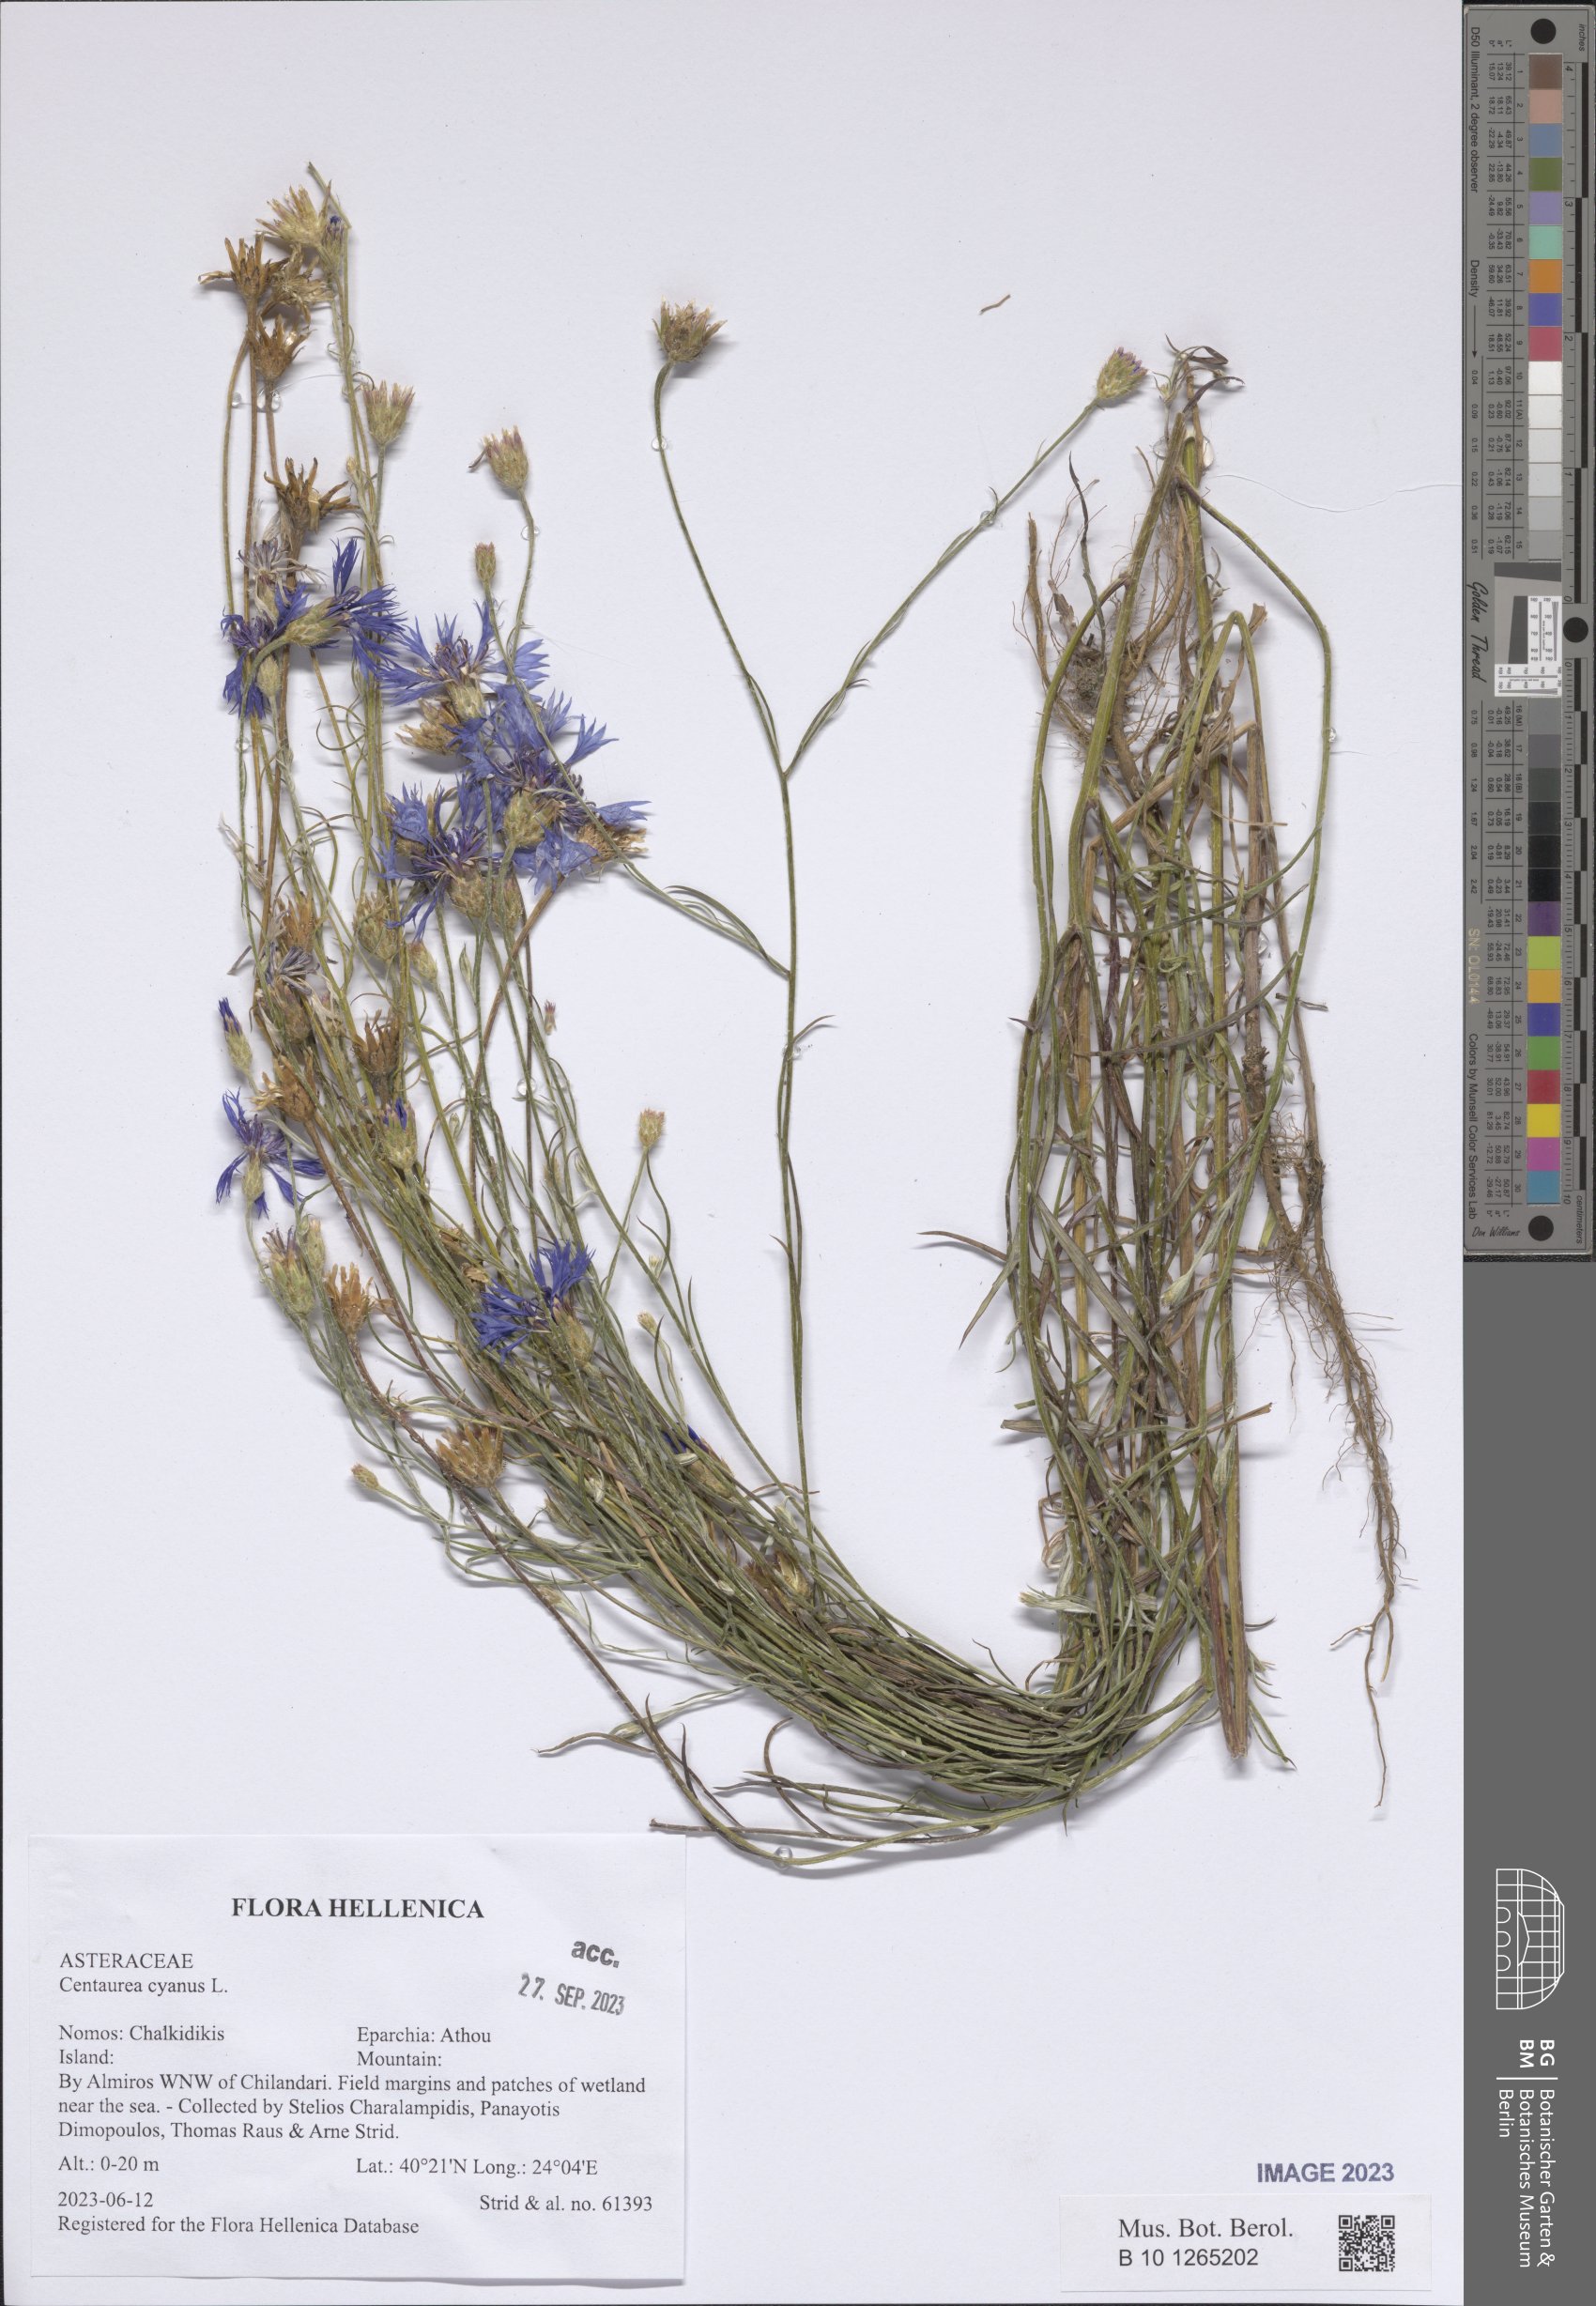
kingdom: Plantae
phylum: Tracheophyta
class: Magnoliopsida
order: Asterales
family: Asteraceae
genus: Centaurea
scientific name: Centaurea cyanus
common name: Cornflower
